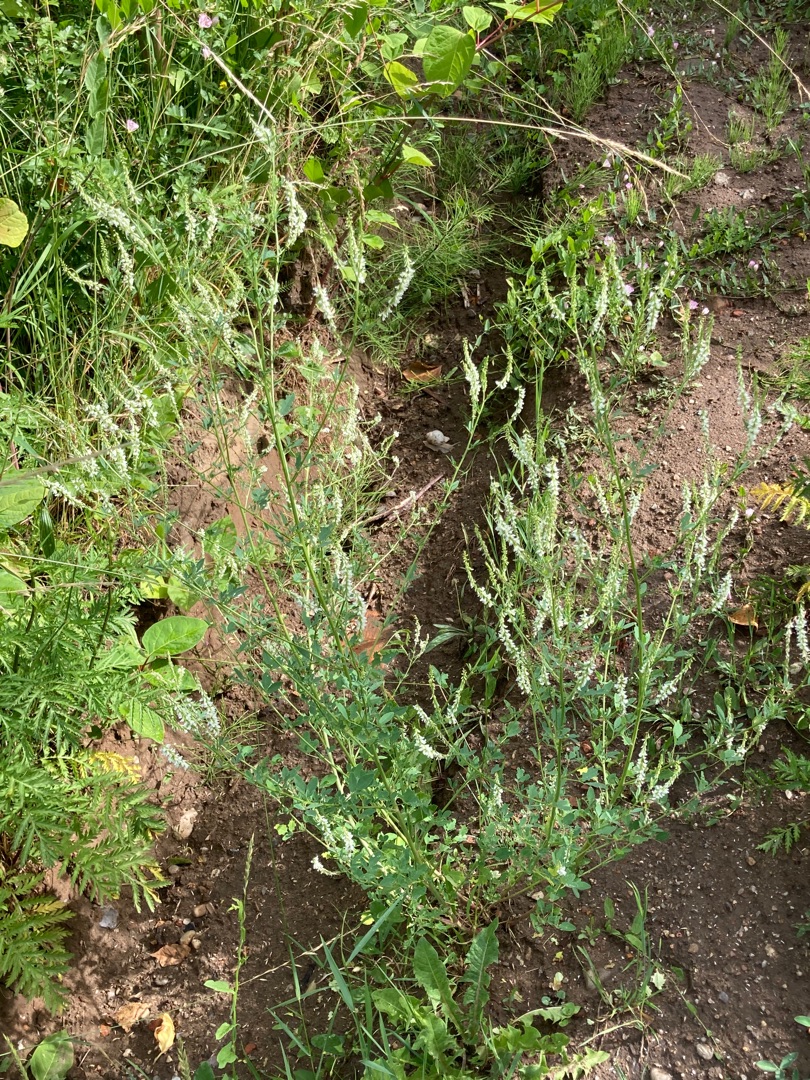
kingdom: Plantae
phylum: Tracheophyta
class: Magnoliopsida
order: Fabales
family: Fabaceae
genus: Melilotus
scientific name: Melilotus albus
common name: Hvid stenkløver
